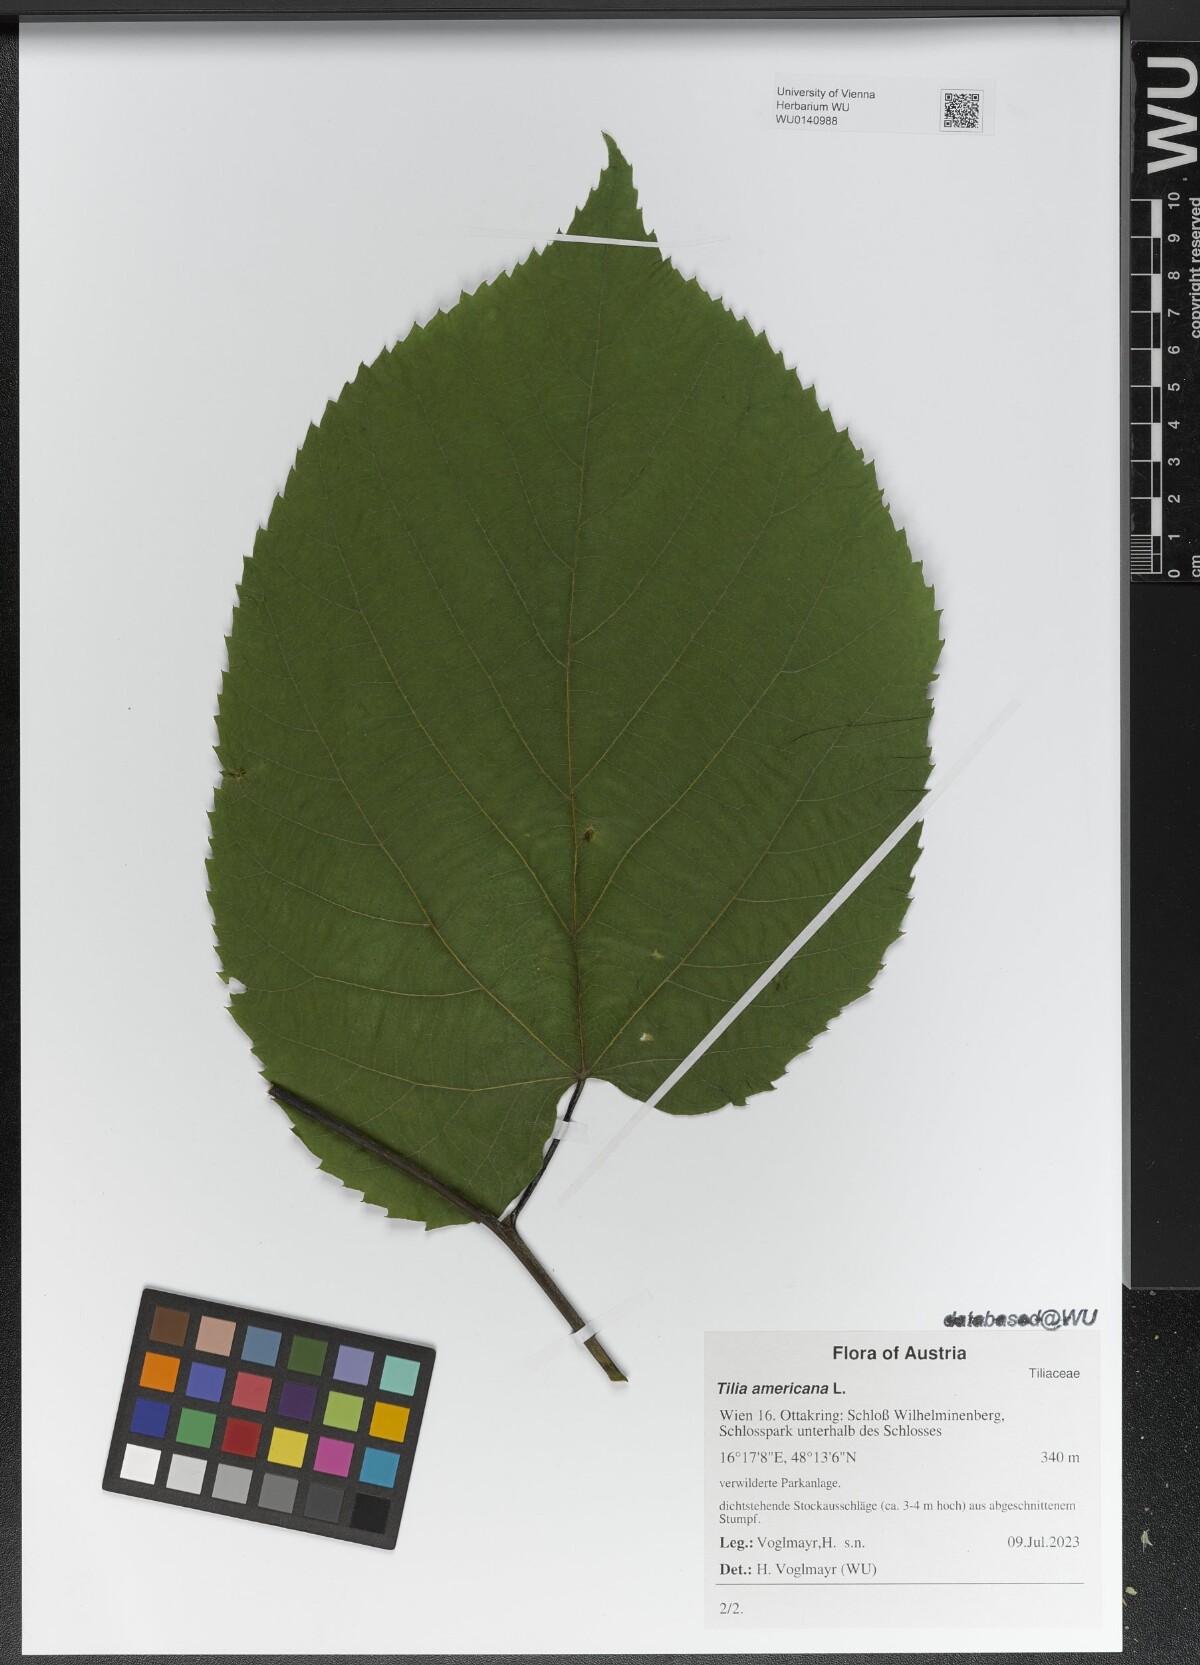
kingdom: Plantae
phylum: Tracheophyta
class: Magnoliopsida
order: Malvales
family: Malvaceae
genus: Tilia
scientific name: Tilia americana
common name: Basswood
